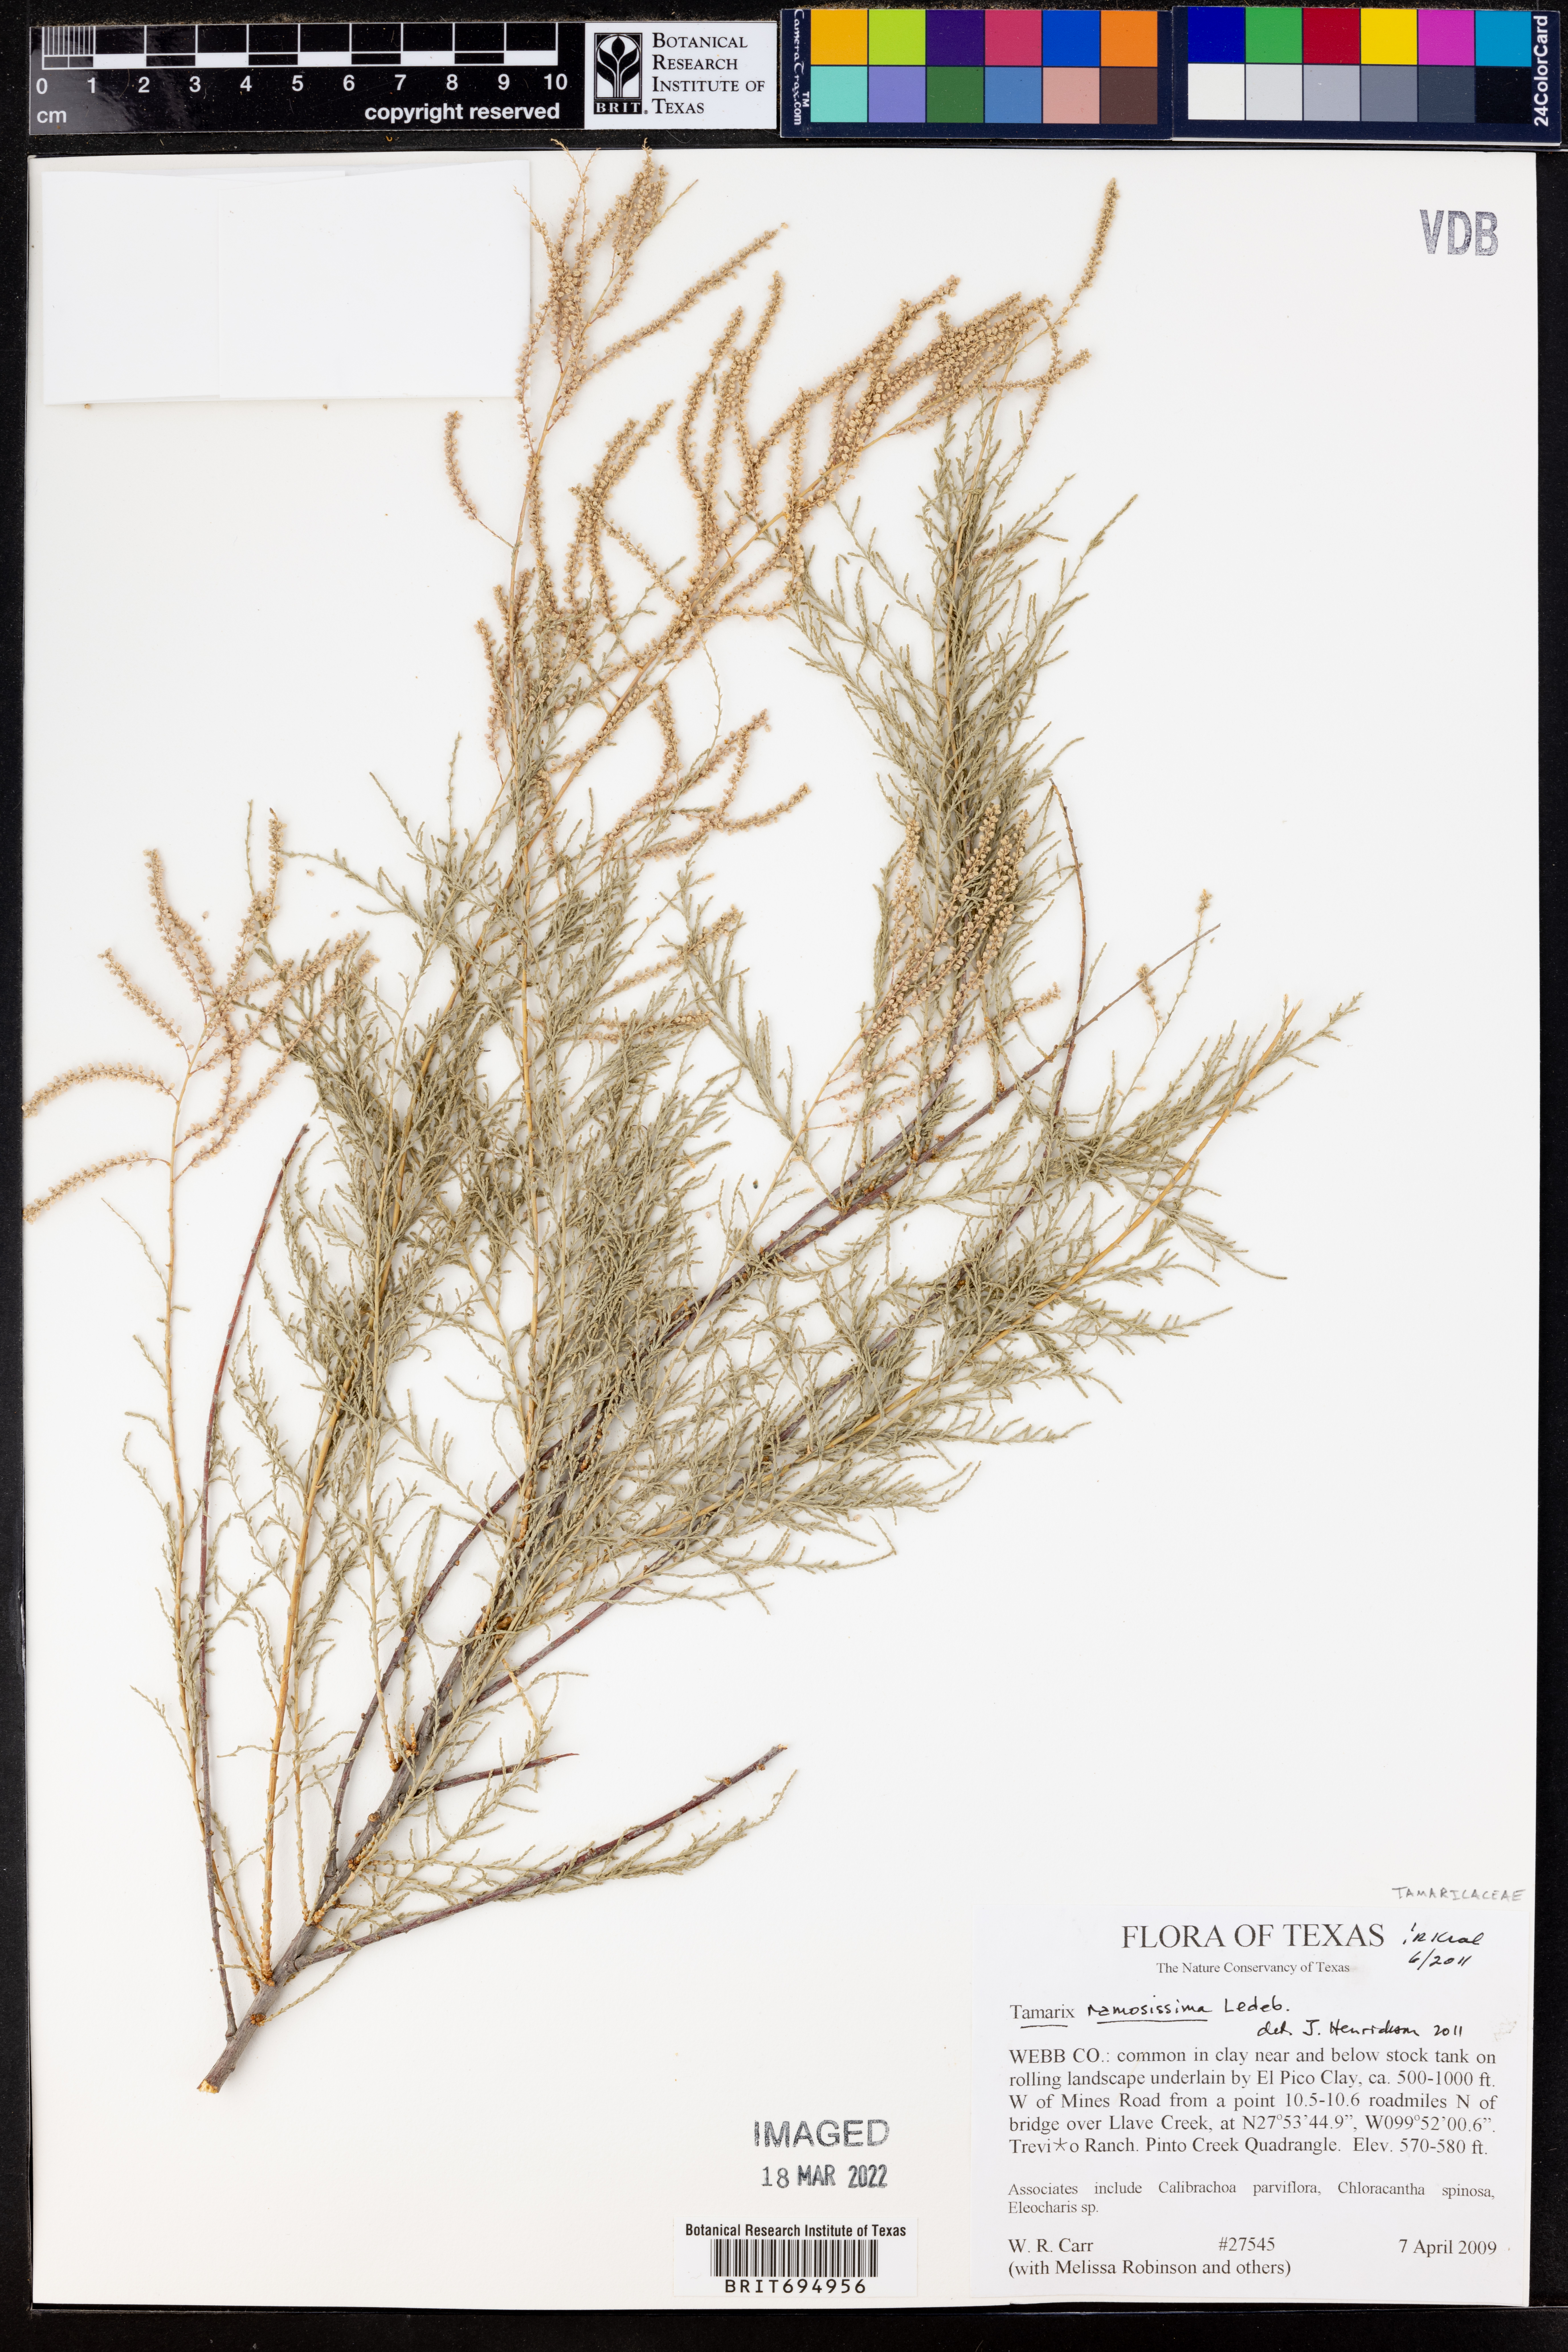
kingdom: Plantae
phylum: Tracheophyta
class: Magnoliopsida
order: Caryophyllales
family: Tamaricaceae
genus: Tamarix
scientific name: Tamarix ramosissima
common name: Pink tamarisk
